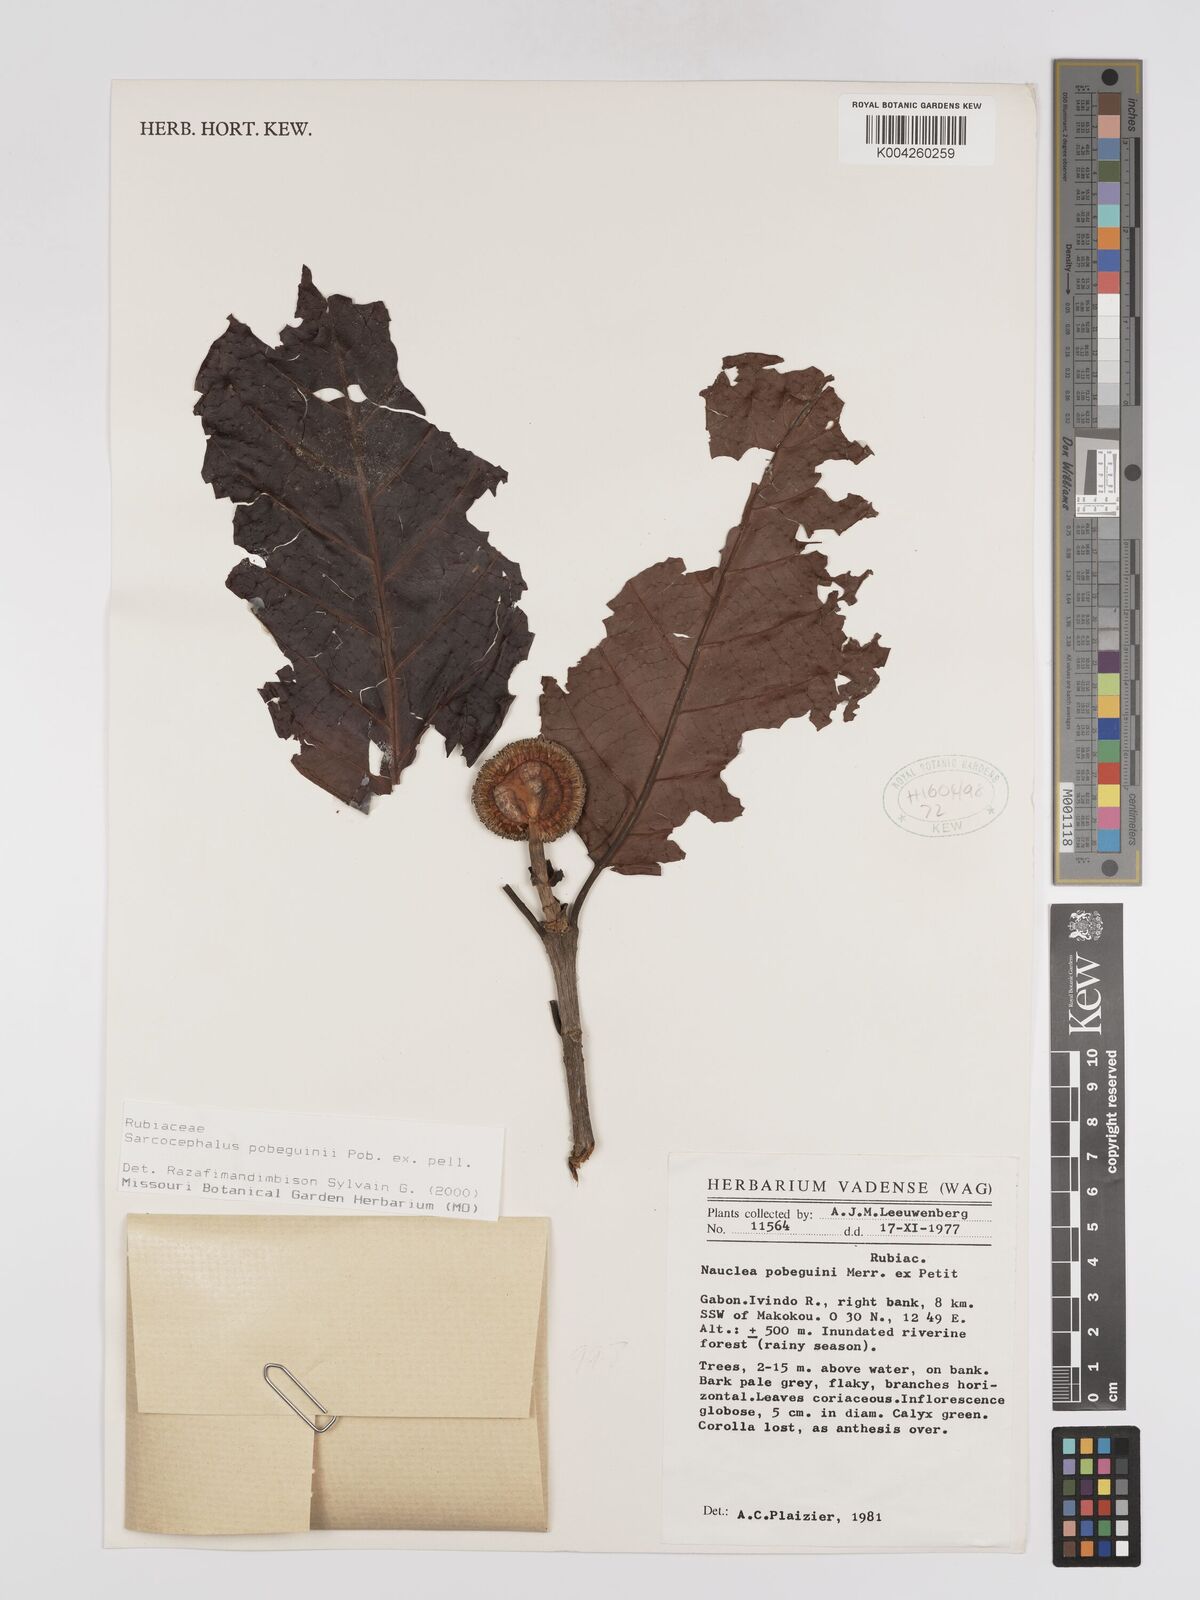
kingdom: Plantae
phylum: Tracheophyta
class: Magnoliopsida
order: Gentianales
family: Rubiaceae
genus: Nauclea
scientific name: Nauclea pobeguinii
